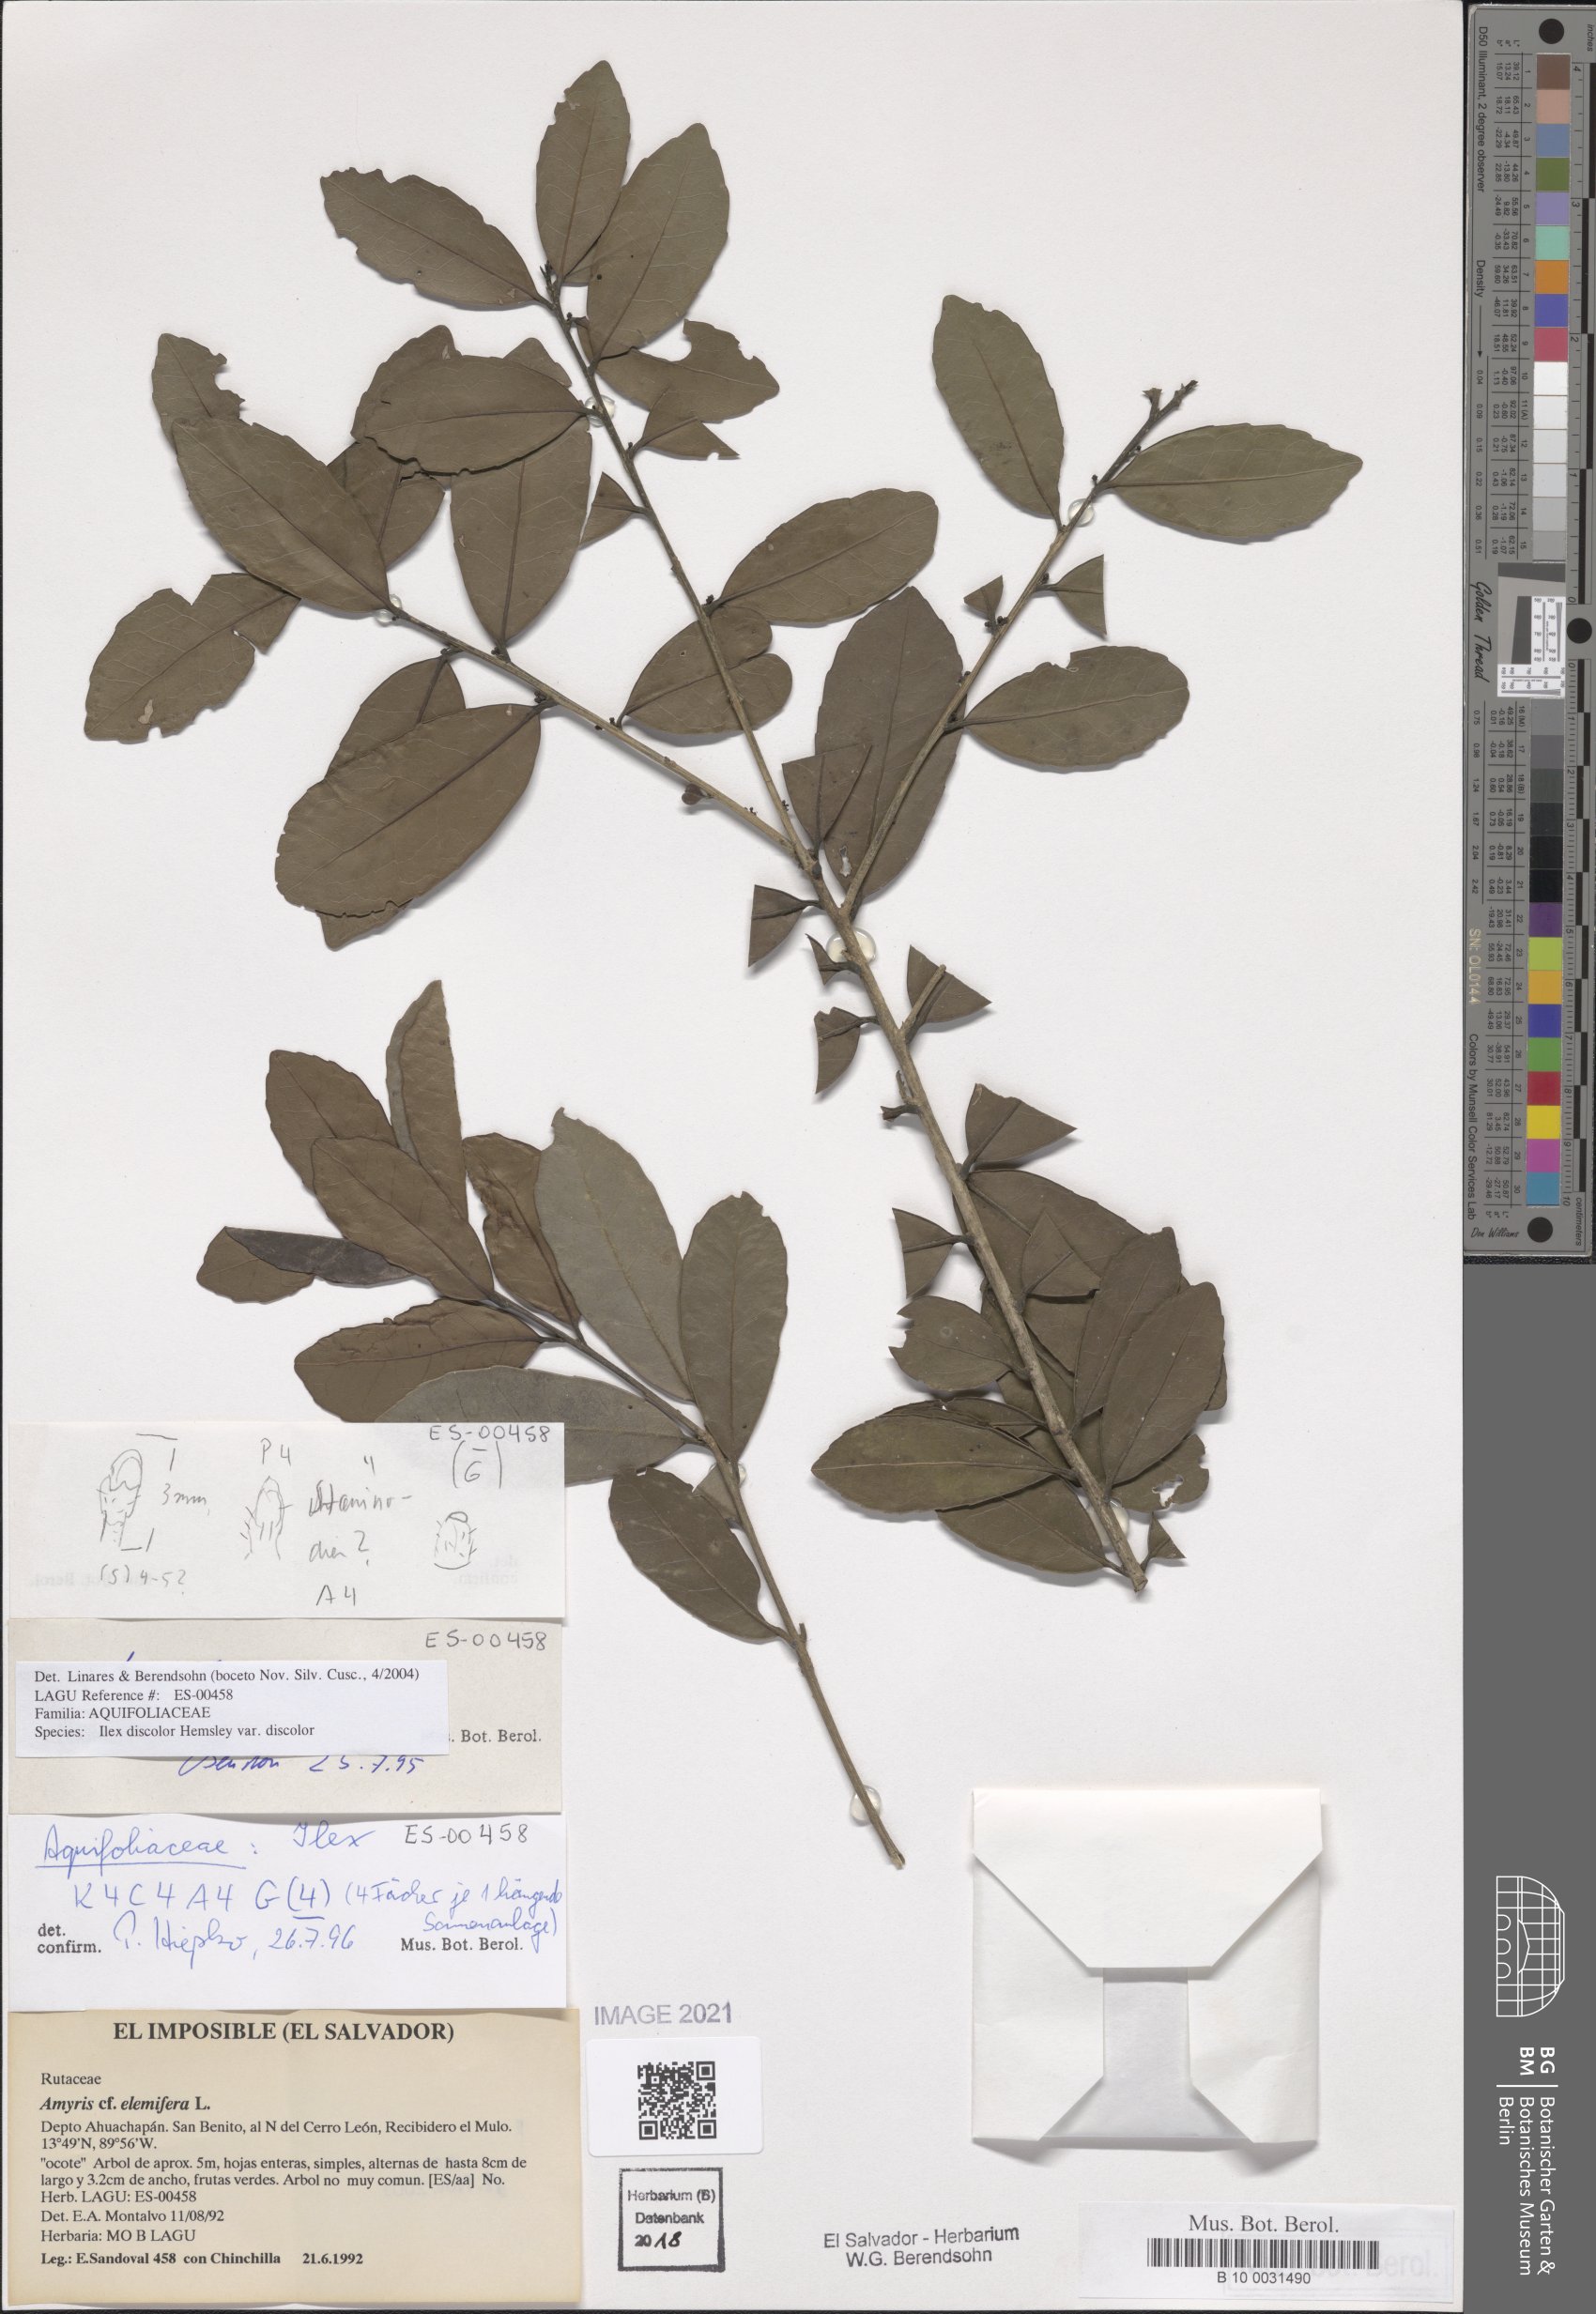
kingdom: Plantae
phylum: Tracheophyta
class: Magnoliopsida
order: Aquifoliales
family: Aquifoliaceae
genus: Ilex
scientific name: Ilex discolor
